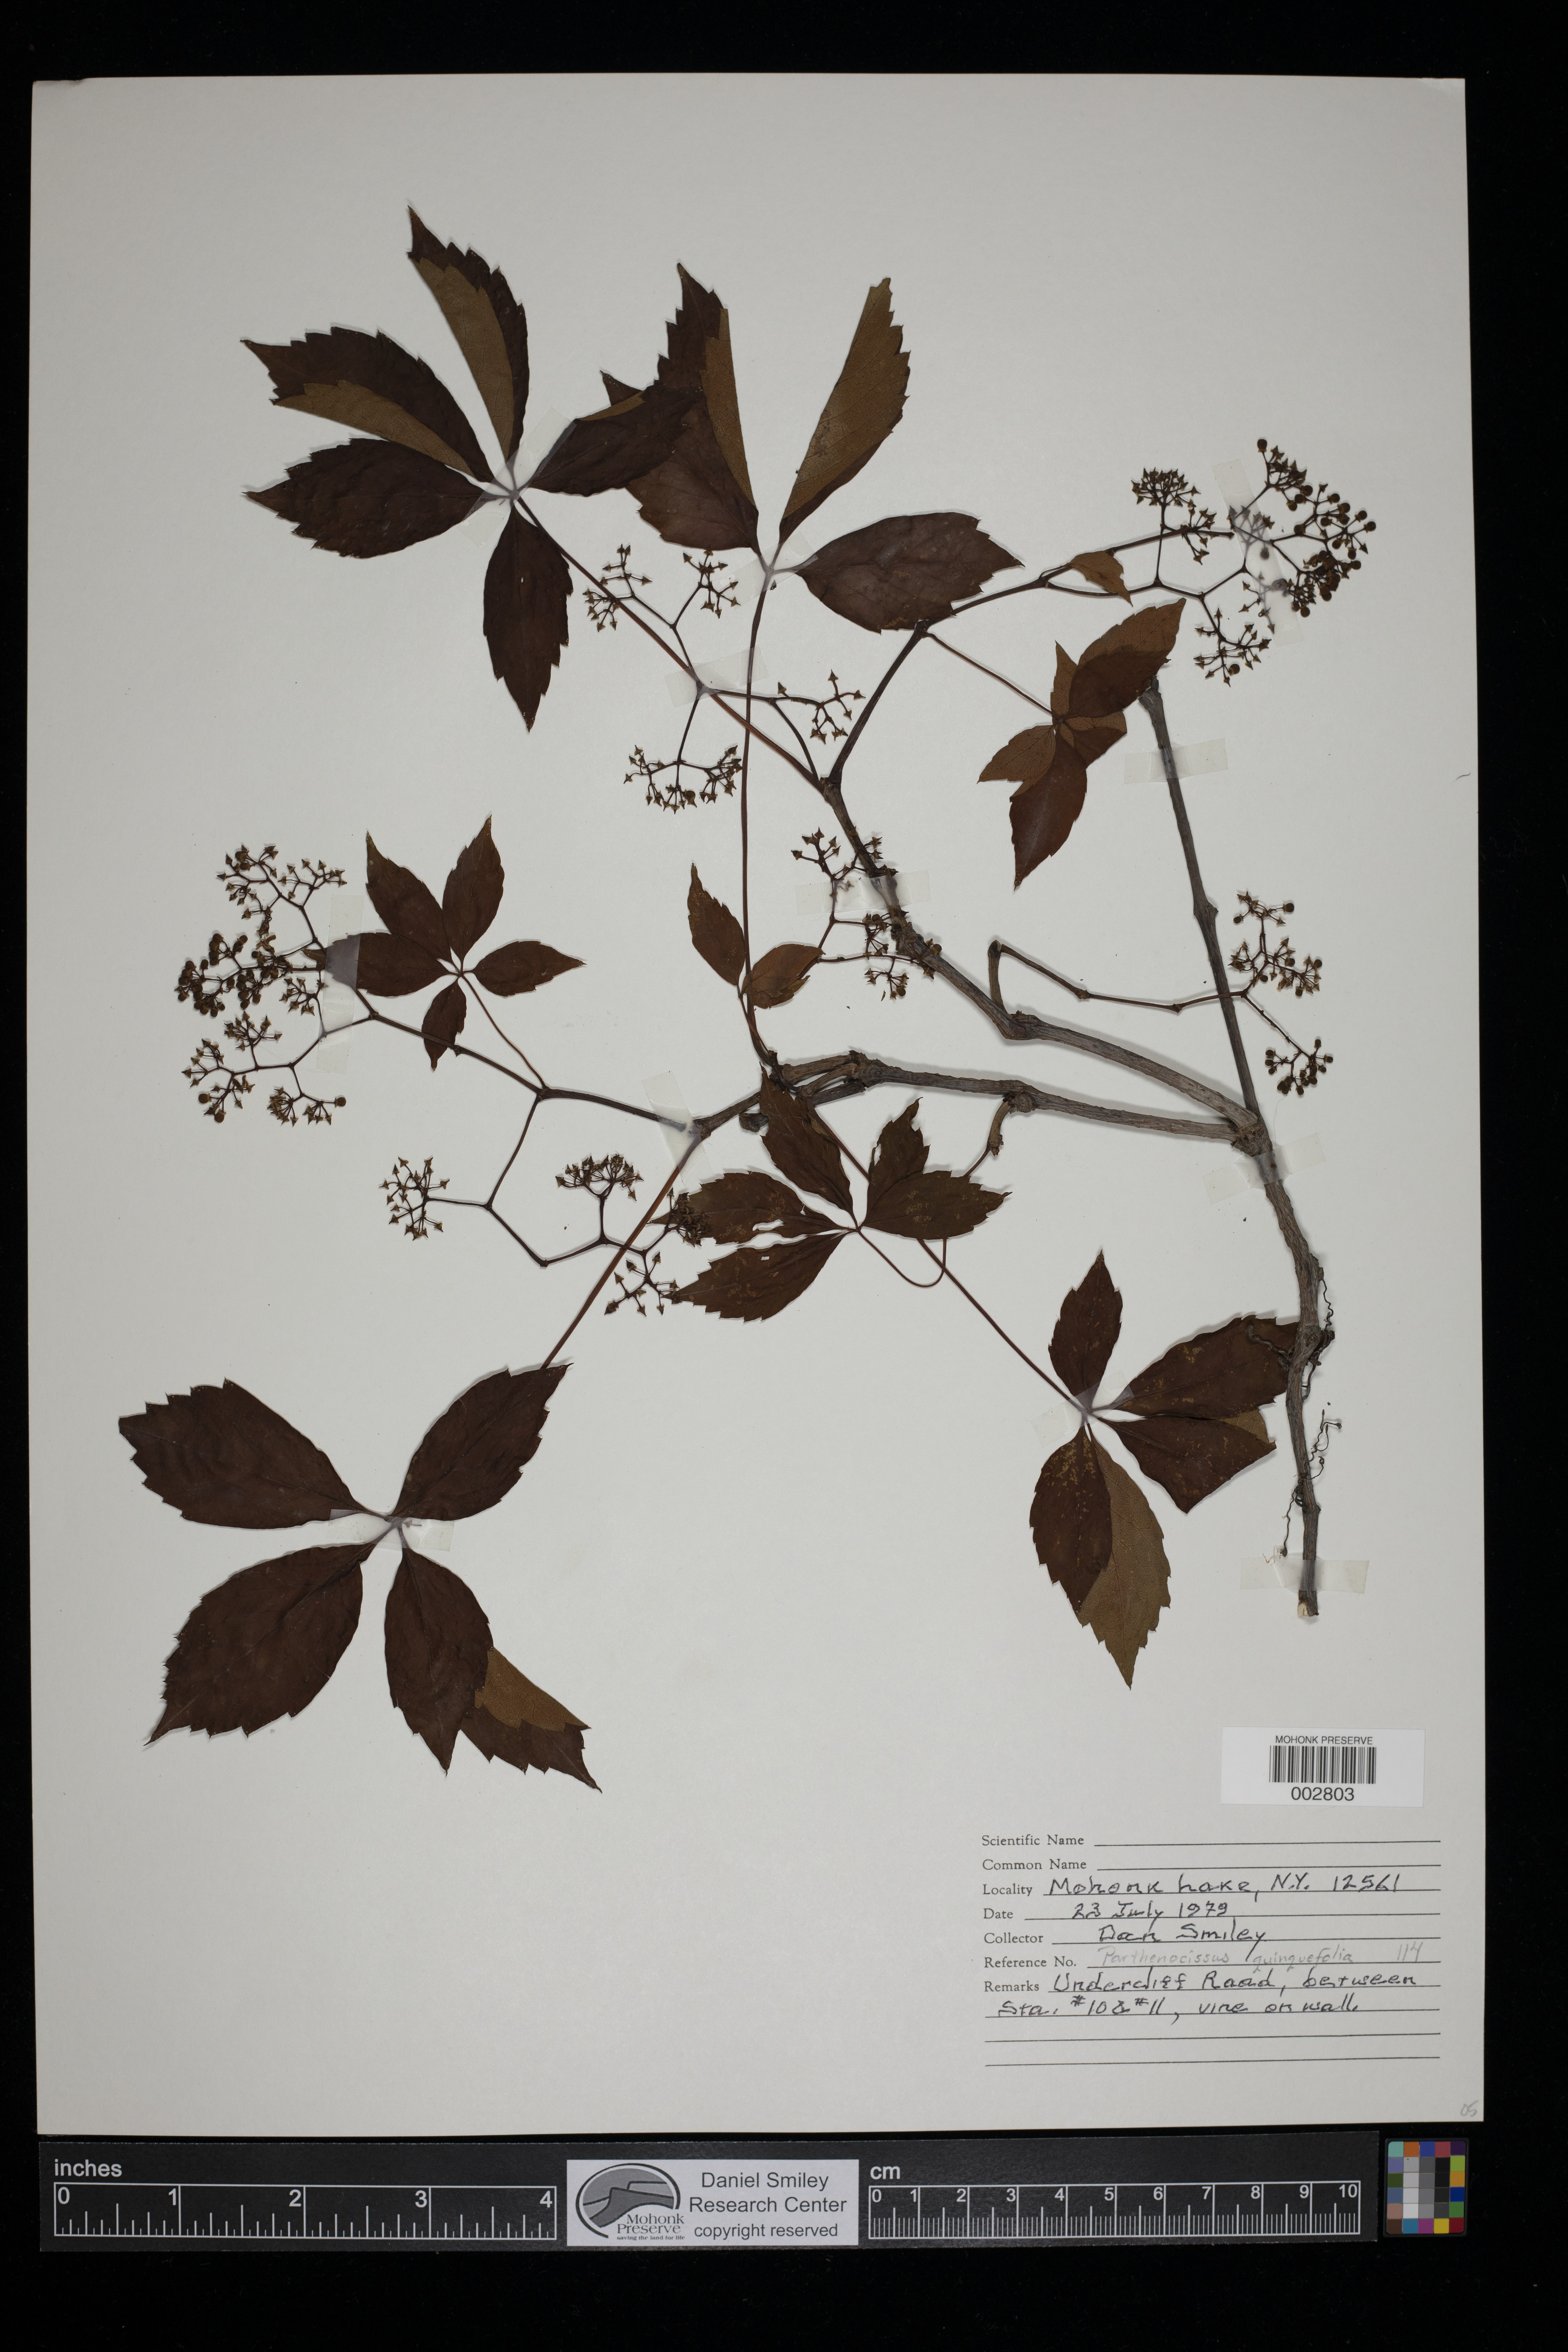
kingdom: Plantae
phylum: Tracheophyta
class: Magnoliopsida
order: Vitales
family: Vitaceae
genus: Parthenocissus
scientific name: Parthenocissus quinquefolia
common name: Virginia-creeper
